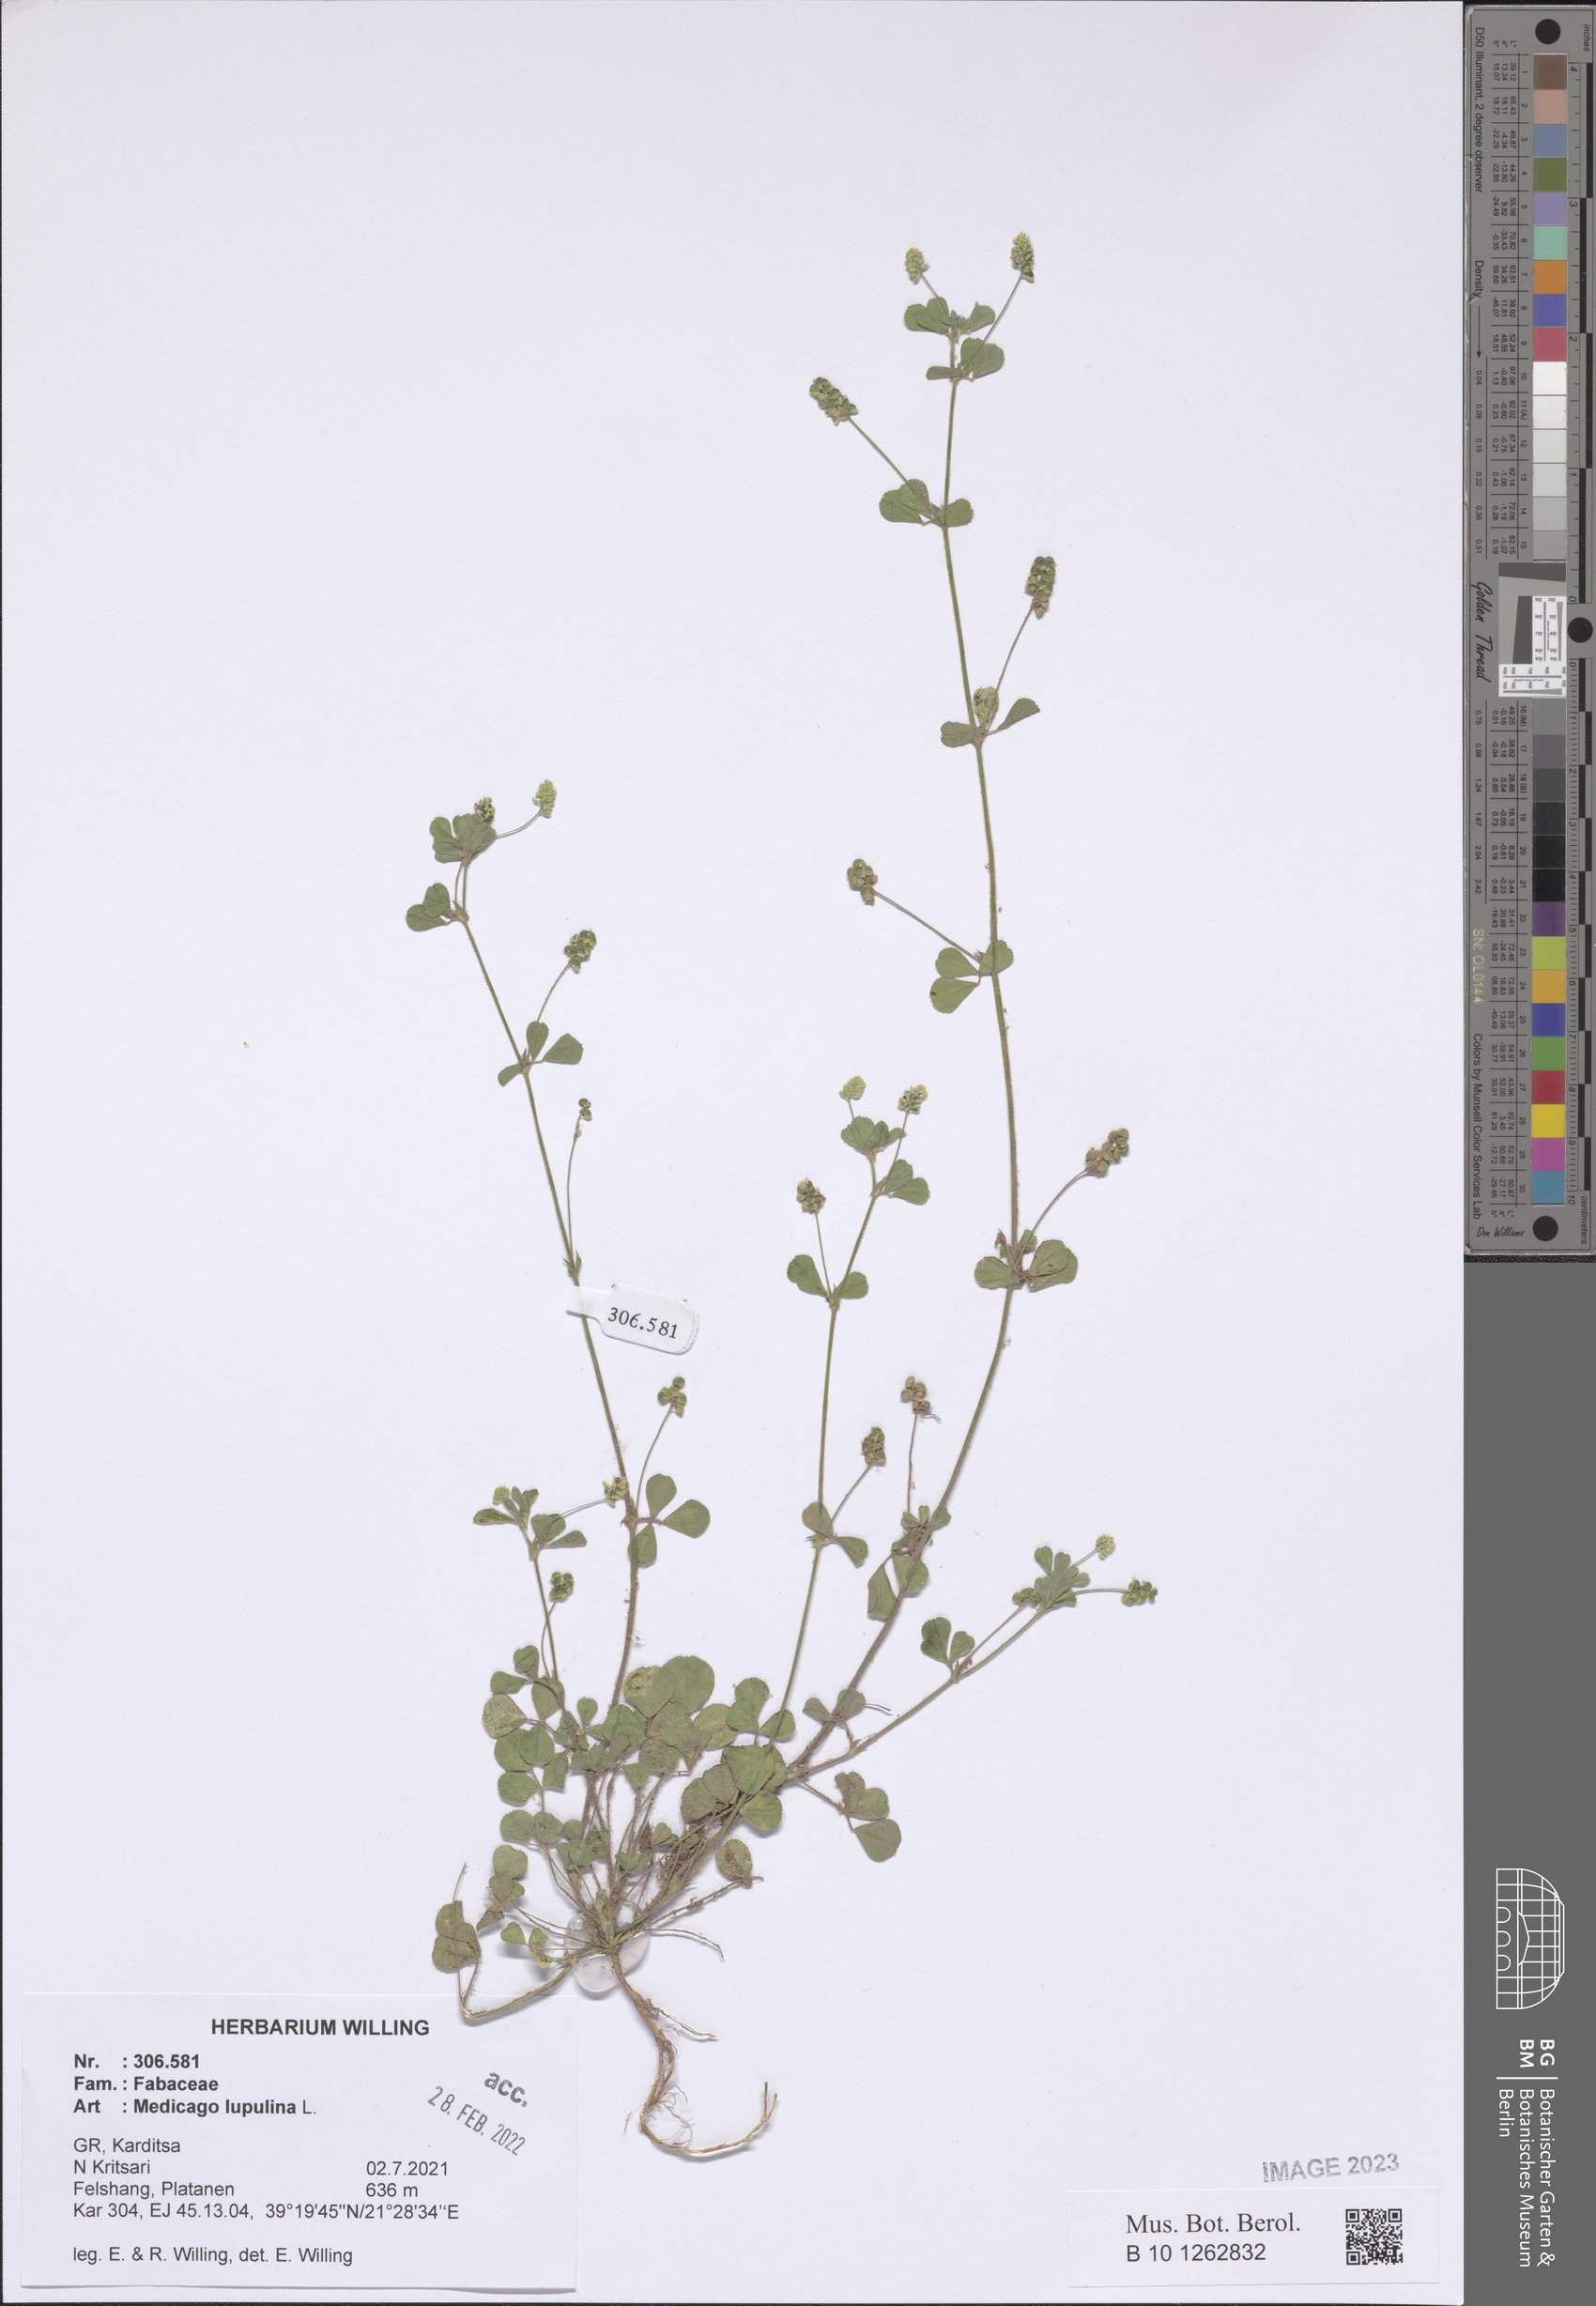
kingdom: Plantae
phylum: Tracheophyta
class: Magnoliopsida
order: Fabales
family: Fabaceae
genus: Medicago
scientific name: Medicago lupulina
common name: Black medick
